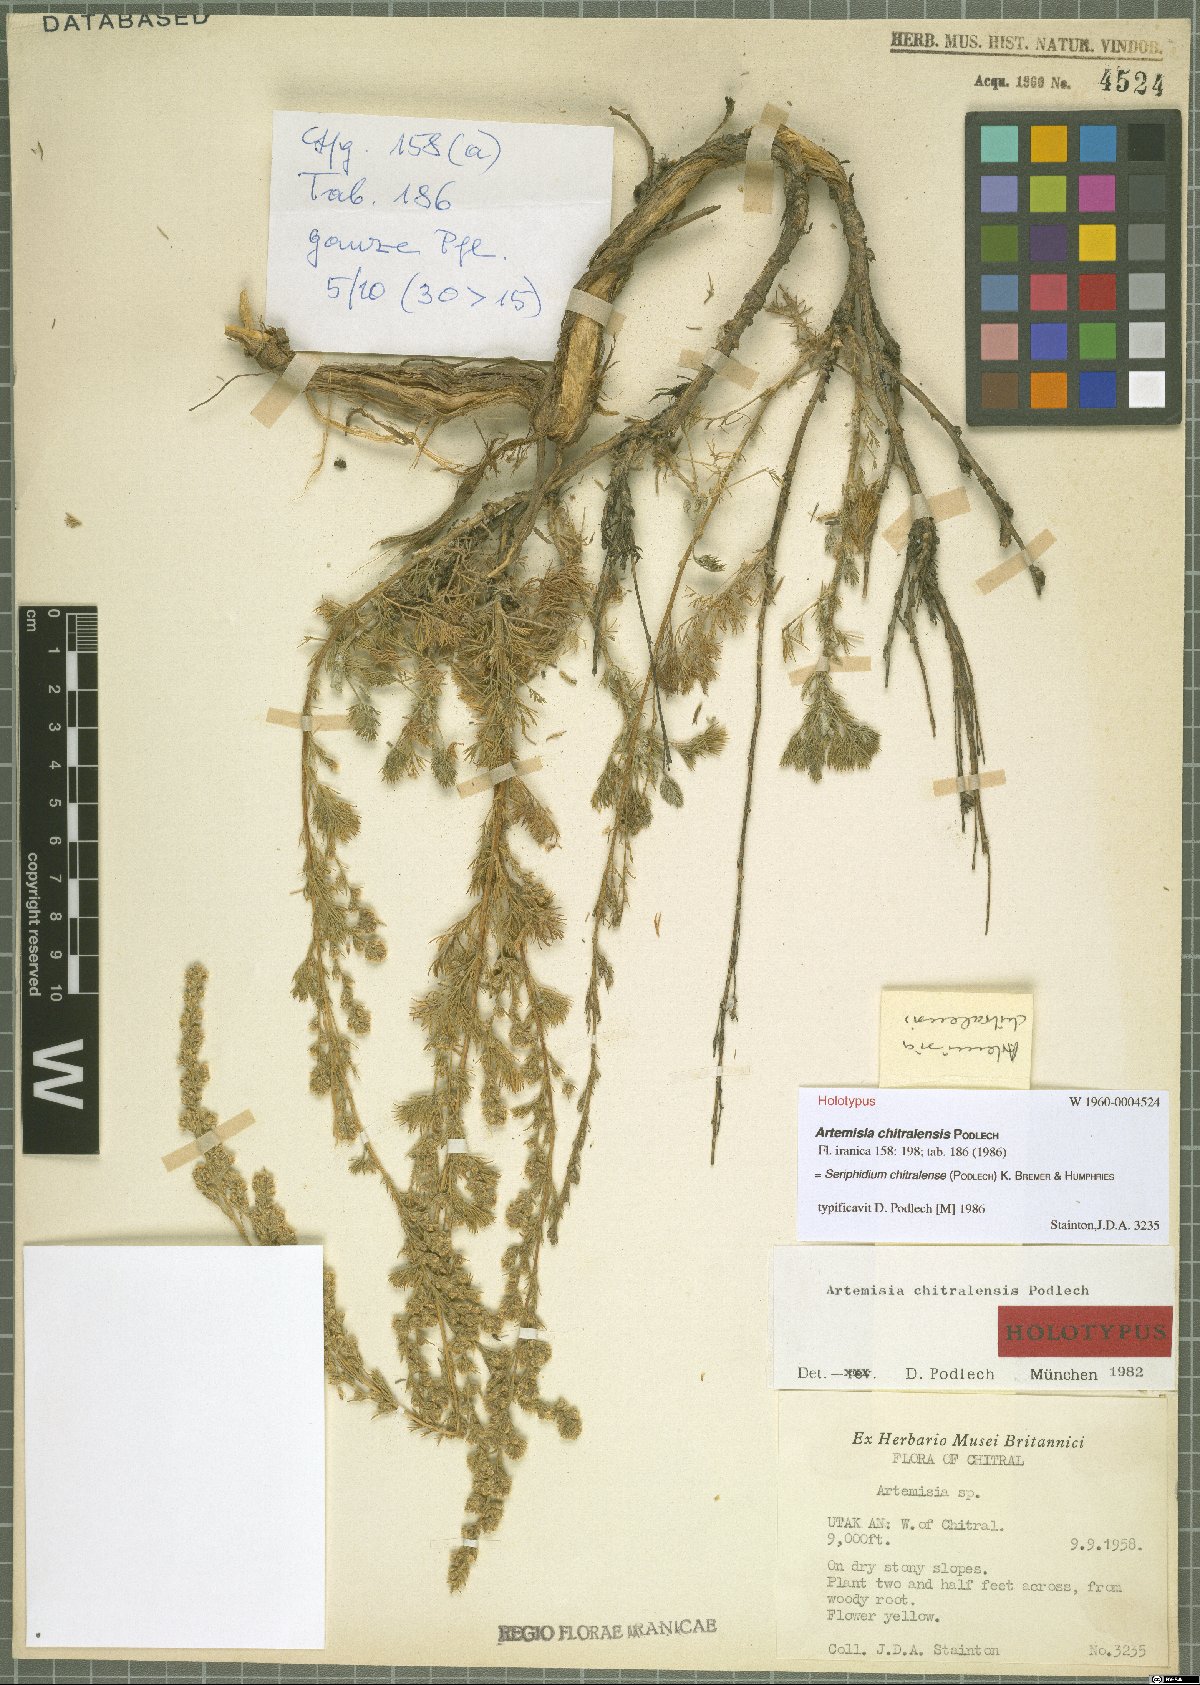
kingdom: Plantae
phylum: Tracheophyta
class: Magnoliopsida
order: Asterales
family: Asteraceae
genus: Artemisia
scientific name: Artemisia chitralensis
